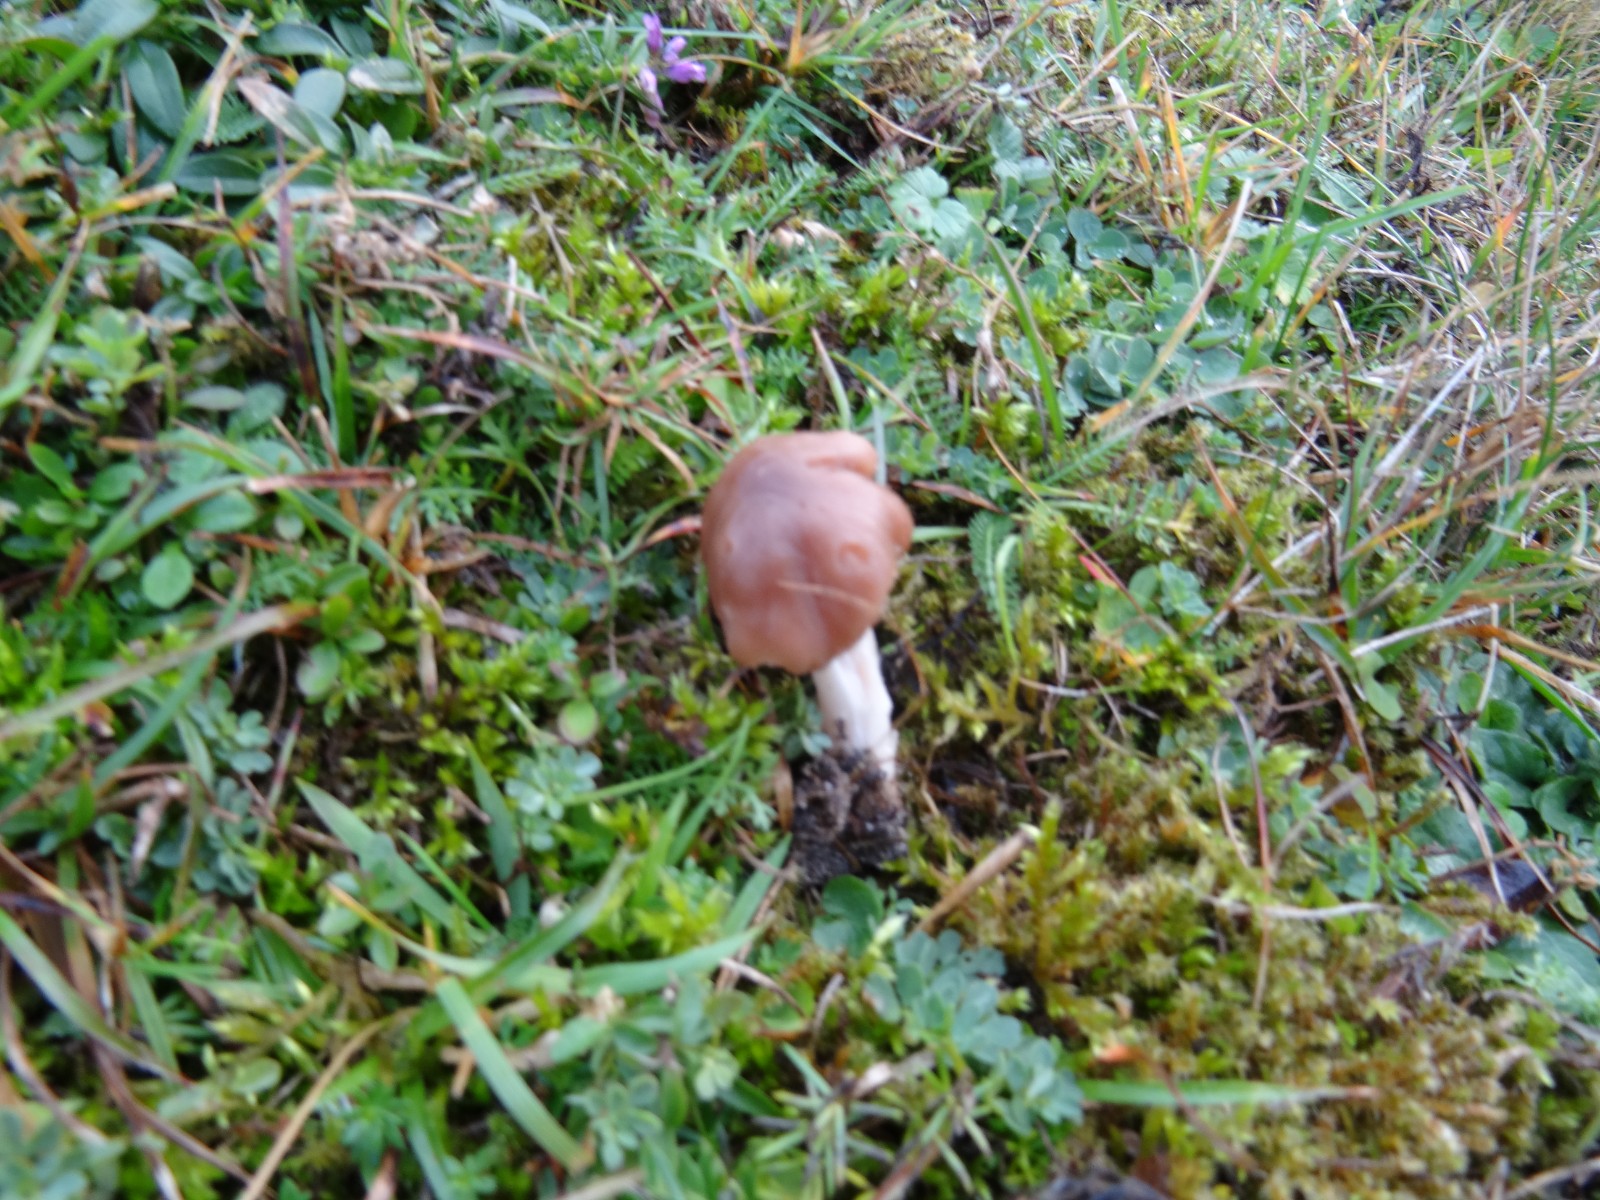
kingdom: Fungi
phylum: Basidiomycota
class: Agaricomycetes
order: Agaricales
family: Hygrophoraceae
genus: Cuphophyllus
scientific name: Cuphophyllus colemannianus
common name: rødbrun vokshat
